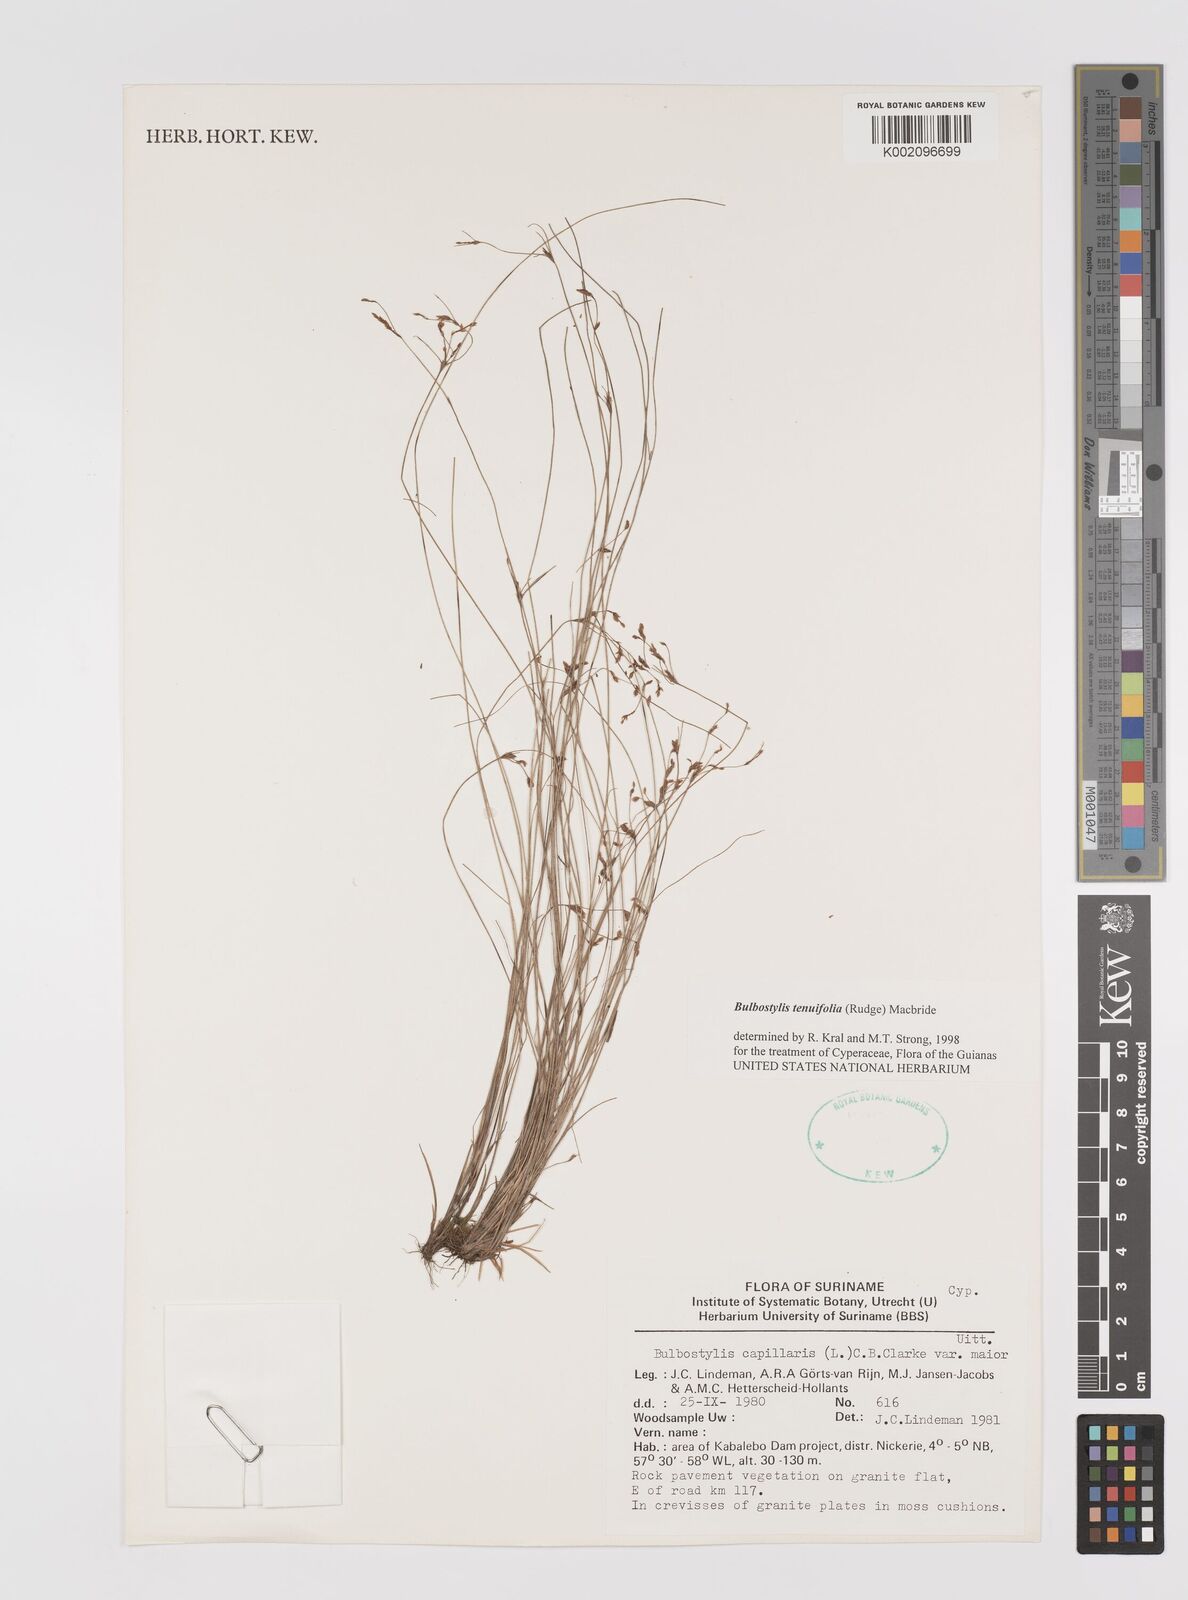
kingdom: Plantae
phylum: Tracheophyta
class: Liliopsida
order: Poales
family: Cyperaceae
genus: Bulbostylis
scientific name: Bulbostylis tenuifolia
